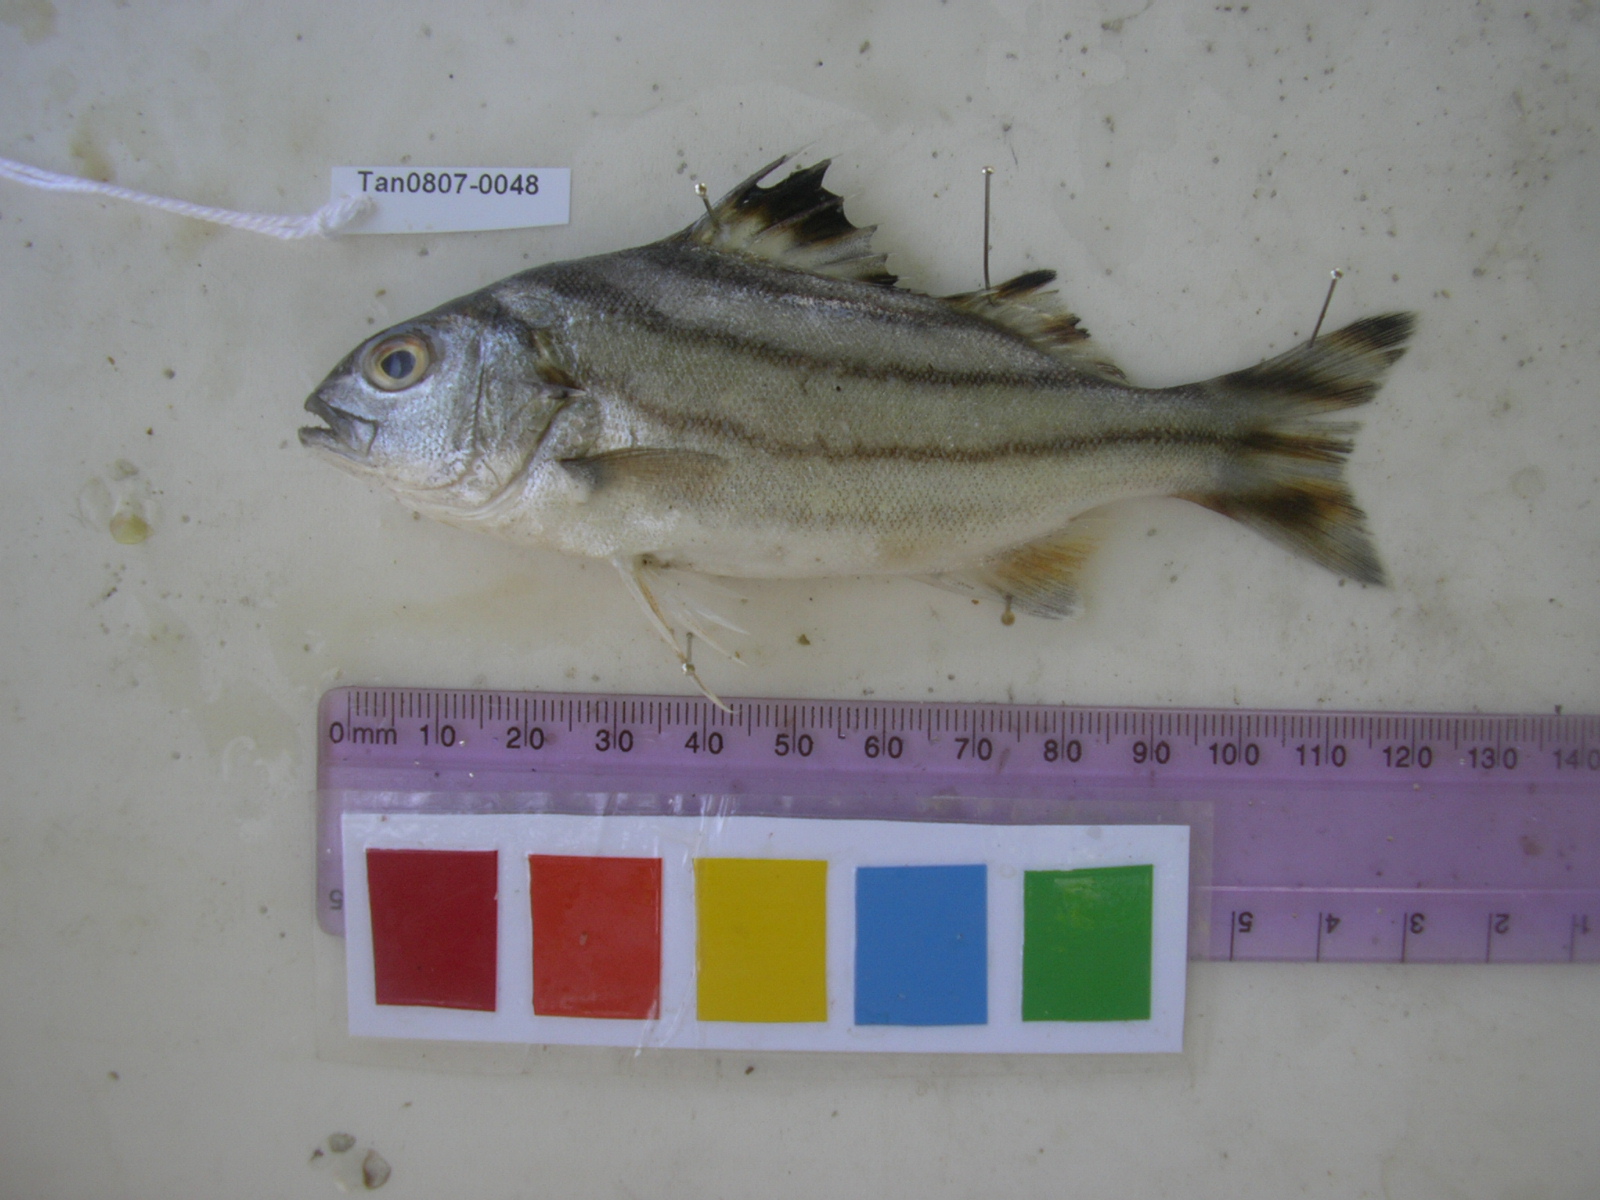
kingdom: Animalia
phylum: Chordata
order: Perciformes
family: Terapontidae
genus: Terapon
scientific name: Terapon jarbua
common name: Jarbua terapon
